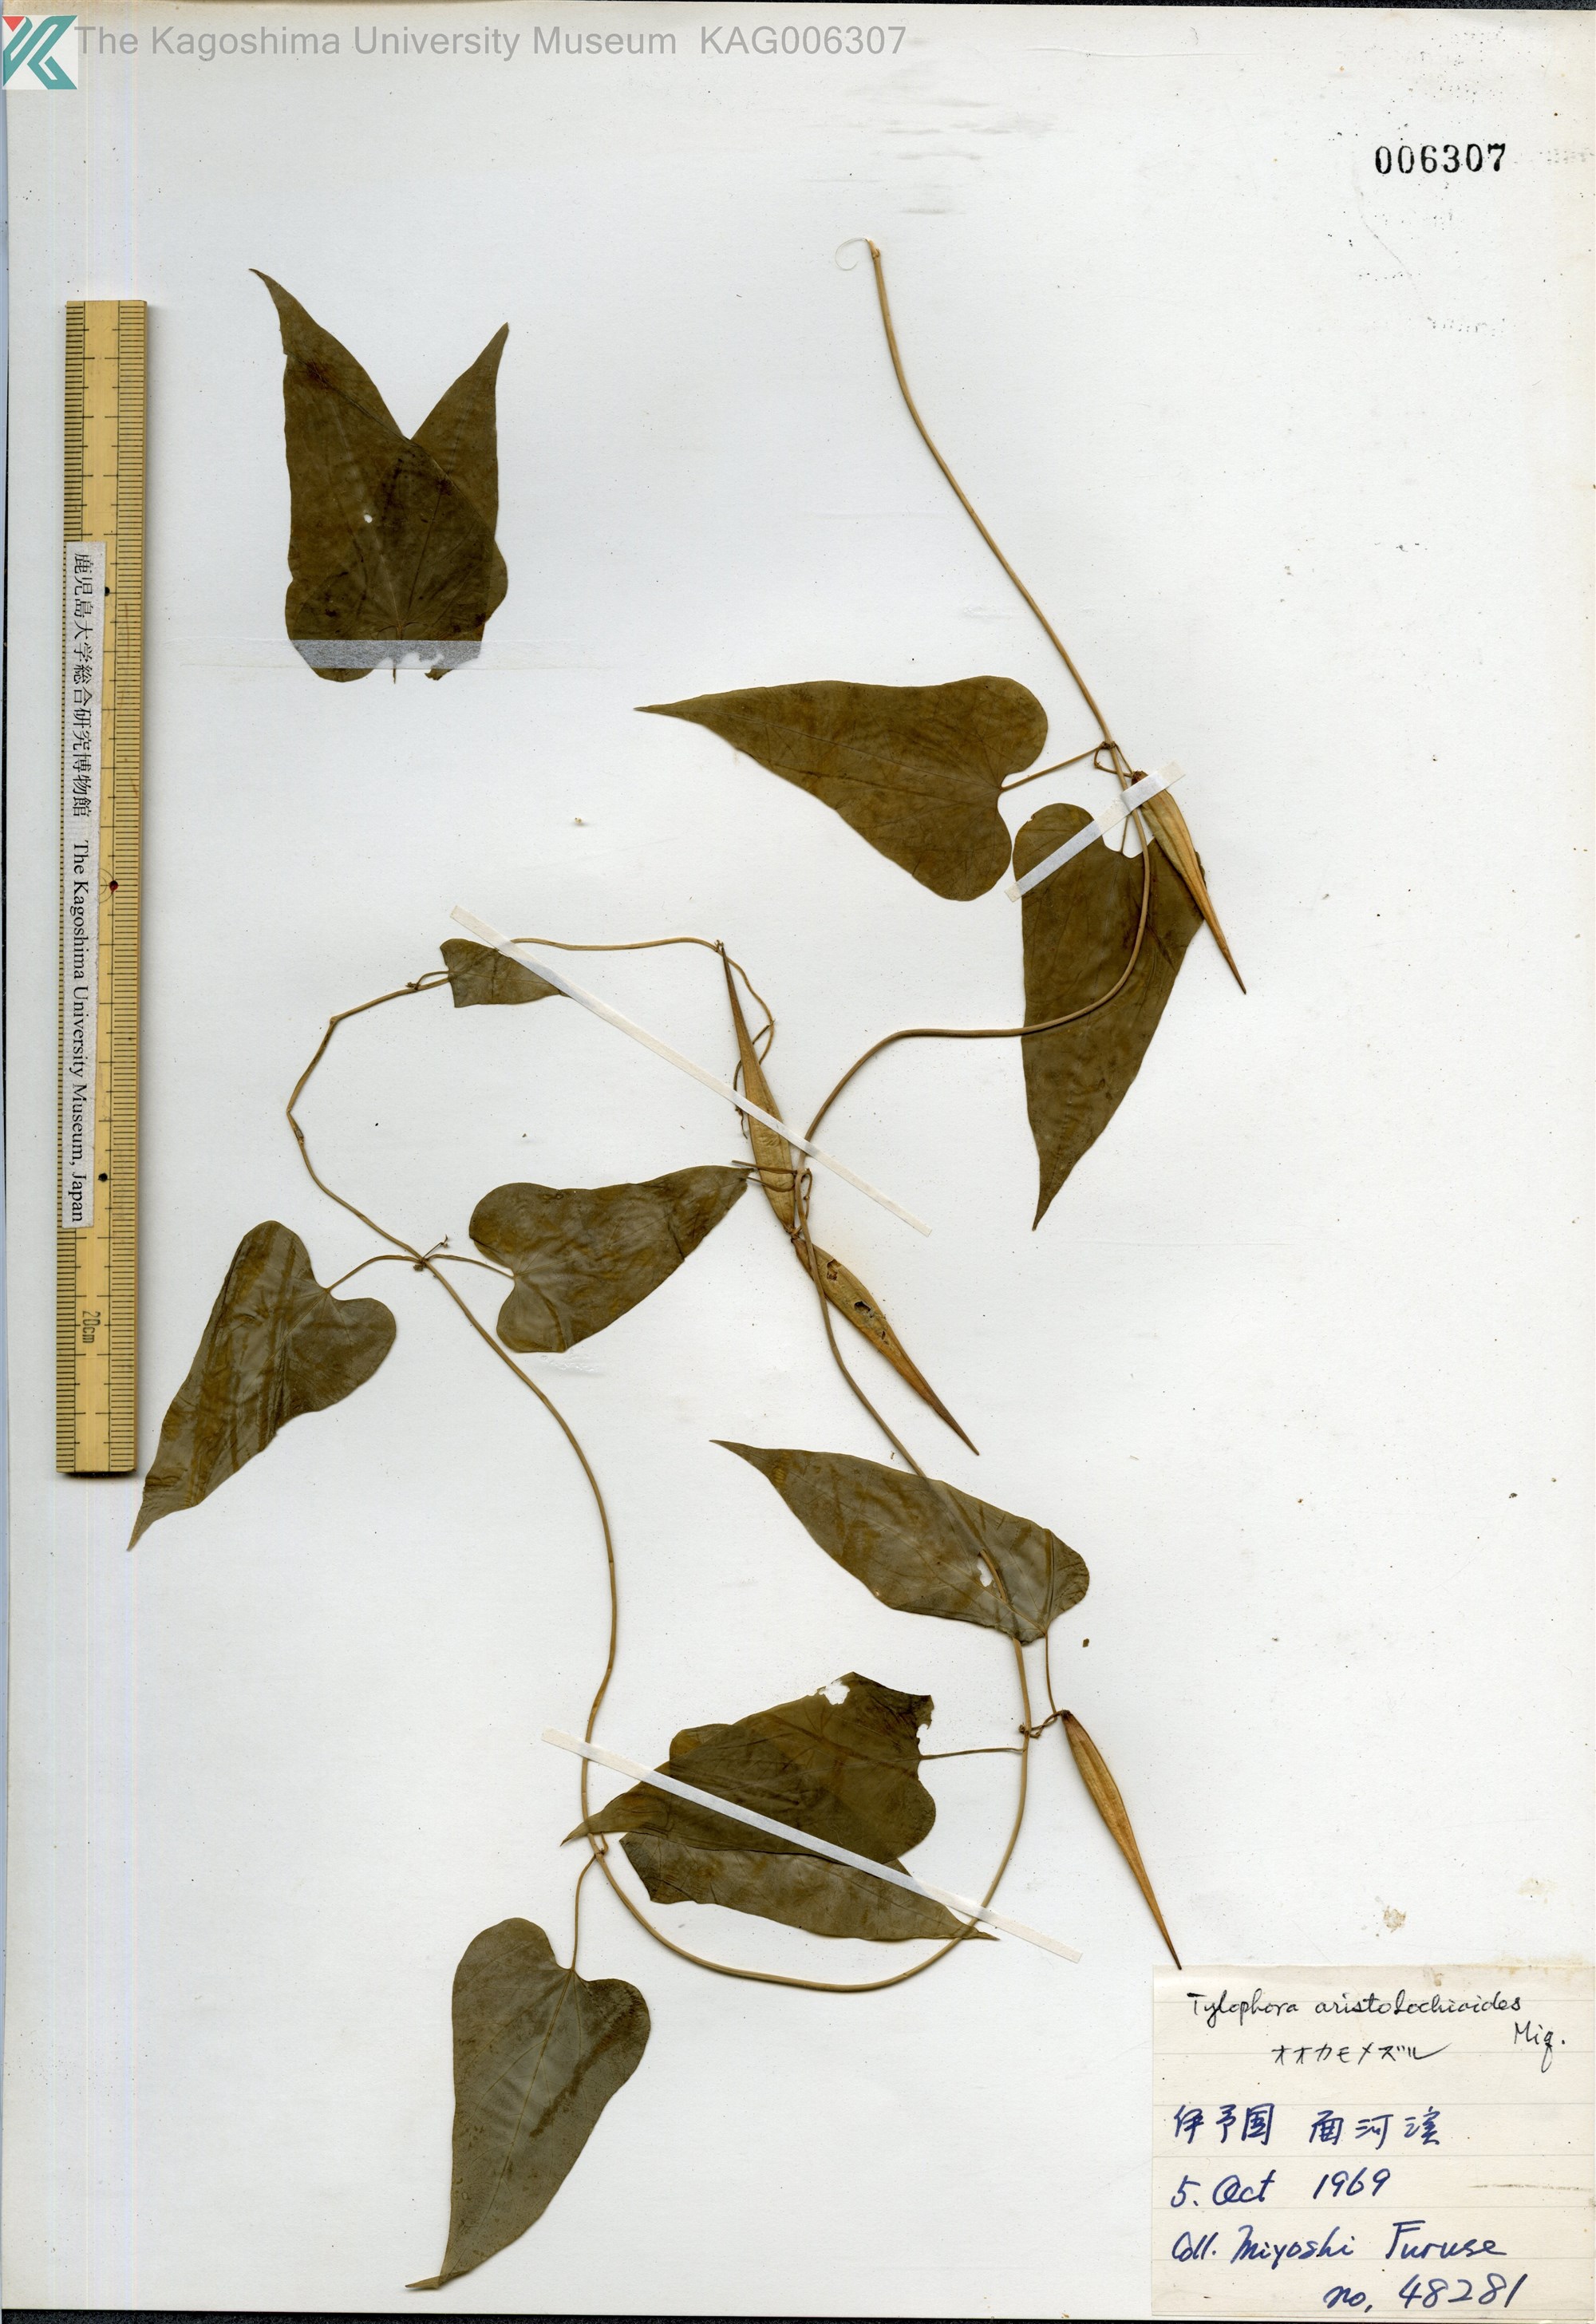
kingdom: Plantae
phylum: Tracheophyta
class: Magnoliopsida
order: Gentianales
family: Apocynaceae
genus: Vincetoxicum
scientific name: Vincetoxicum aristolochioides
